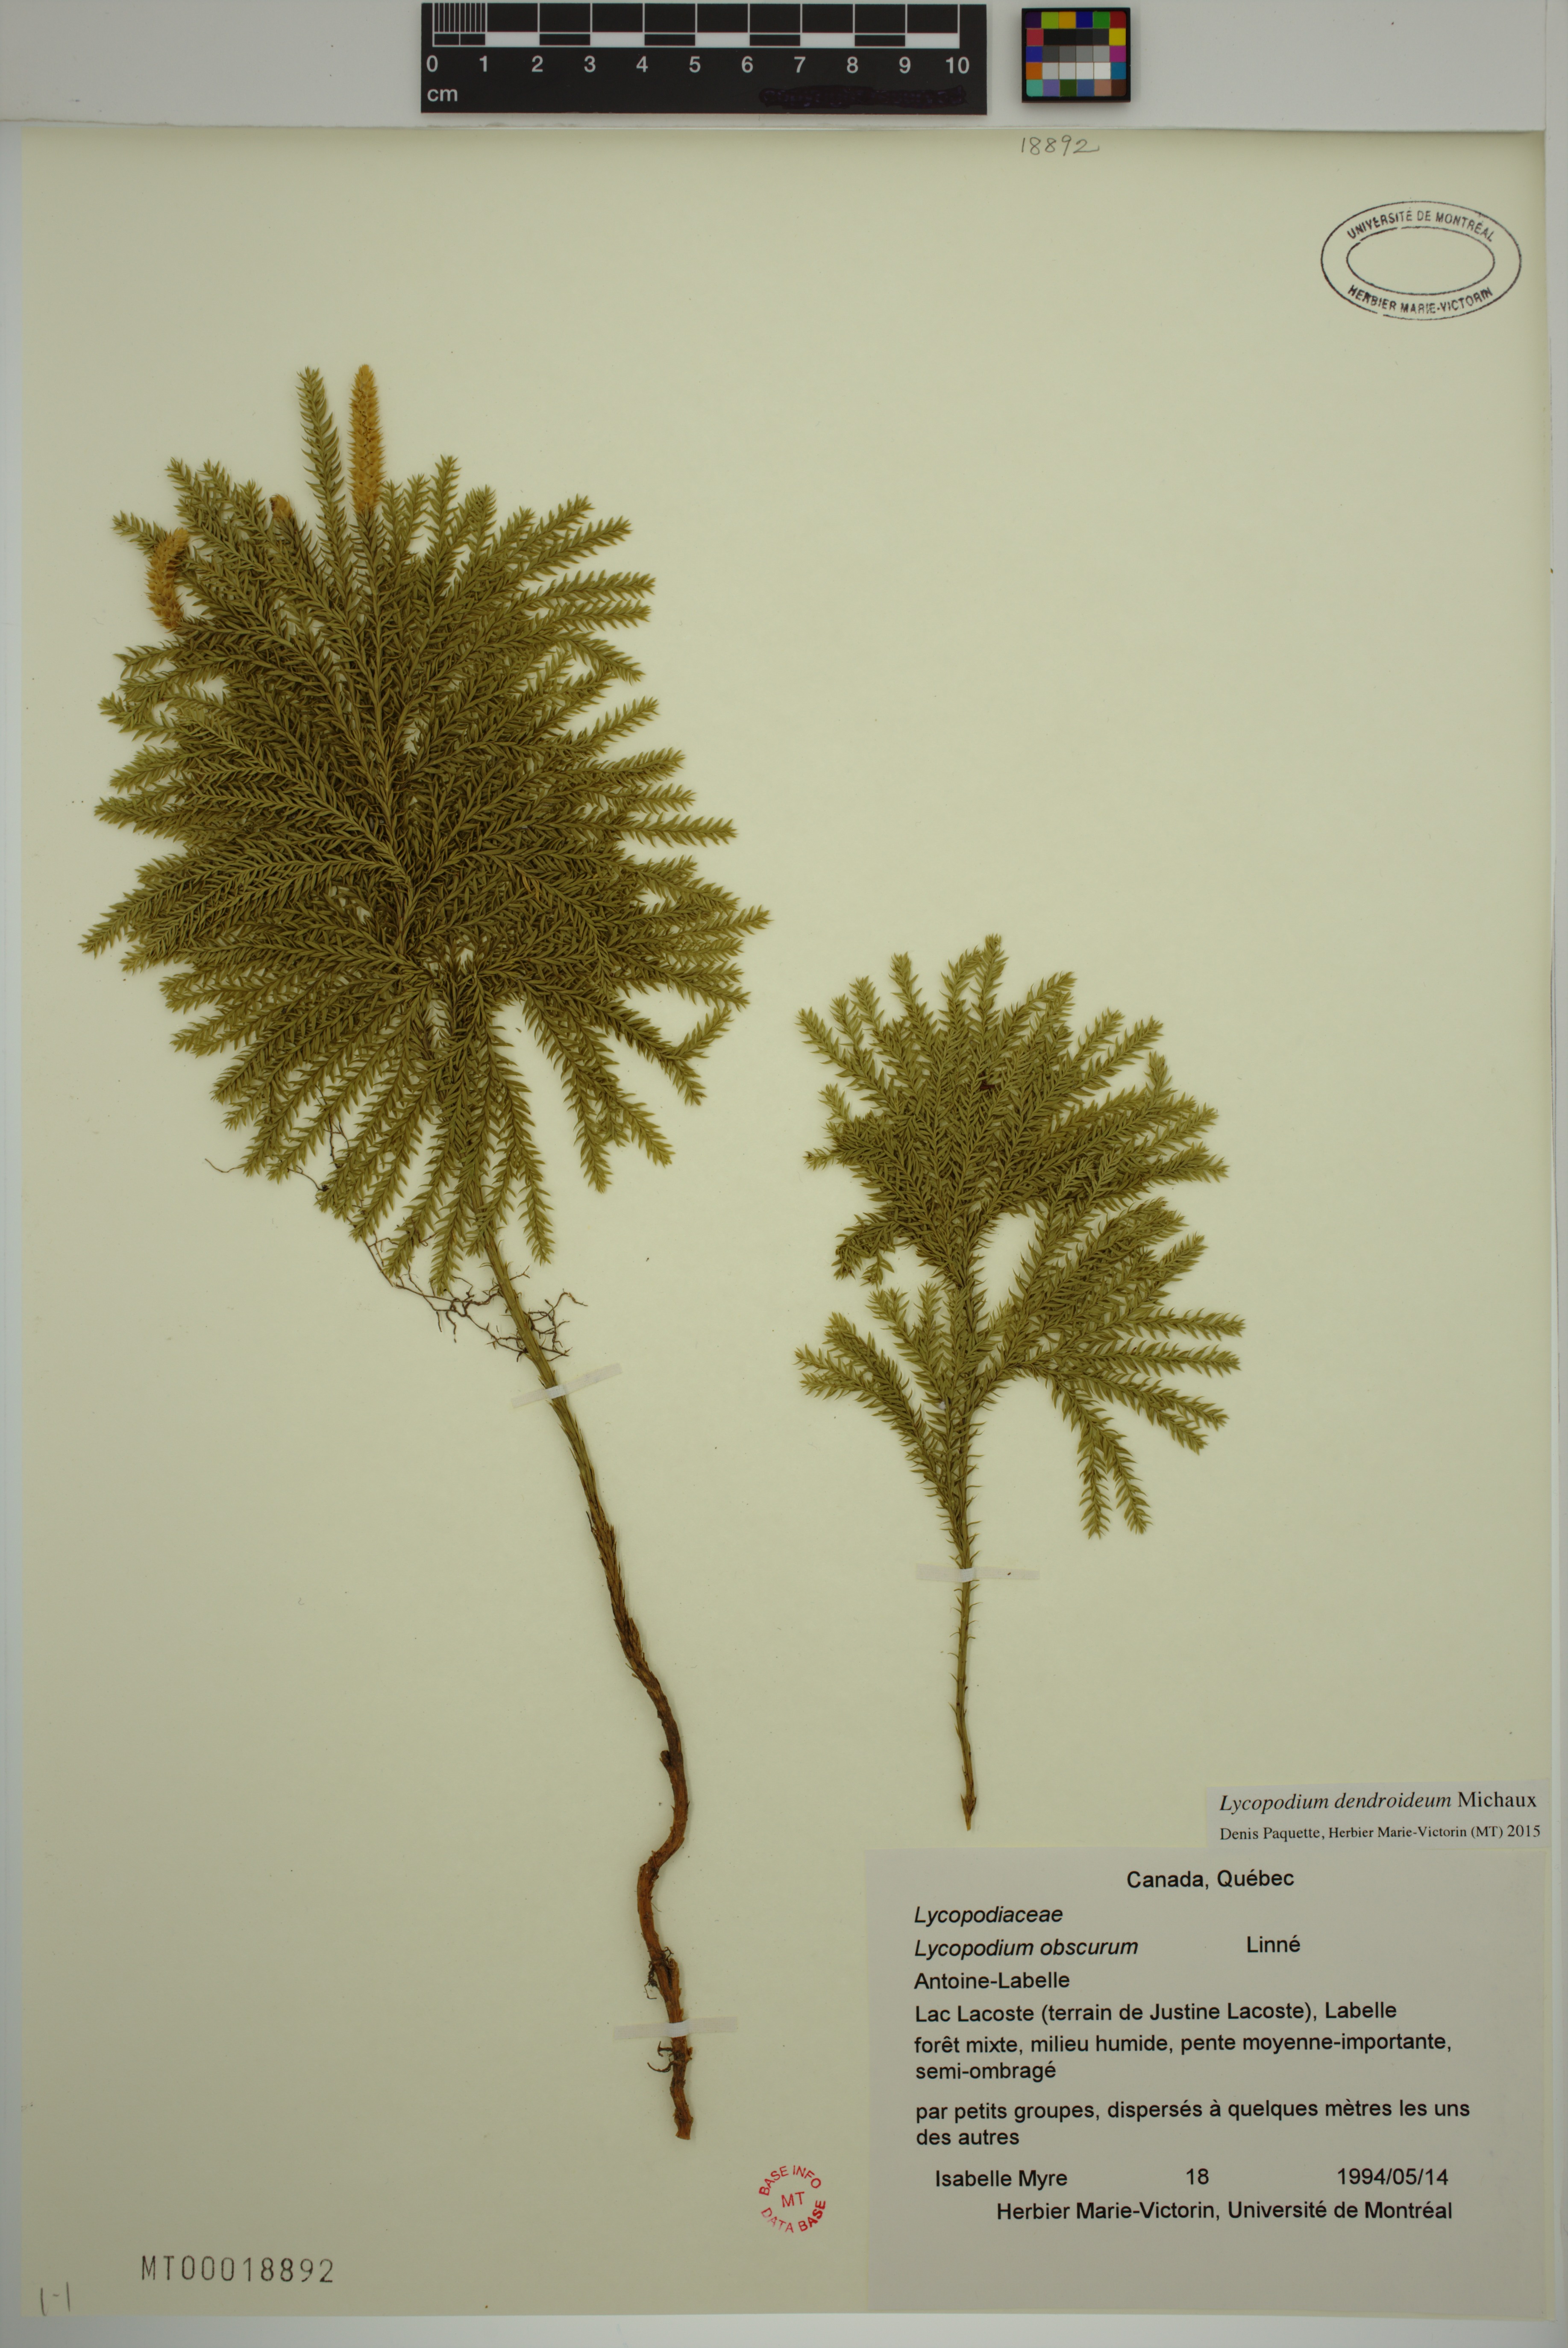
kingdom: Plantae
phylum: Tracheophyta
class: Lycopodiopsida
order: Lycopodiales
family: Lycopodiaceae
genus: Dendrolycopodium
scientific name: Dendrolycopodium dendroideum
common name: Northern tree-clubmoss
